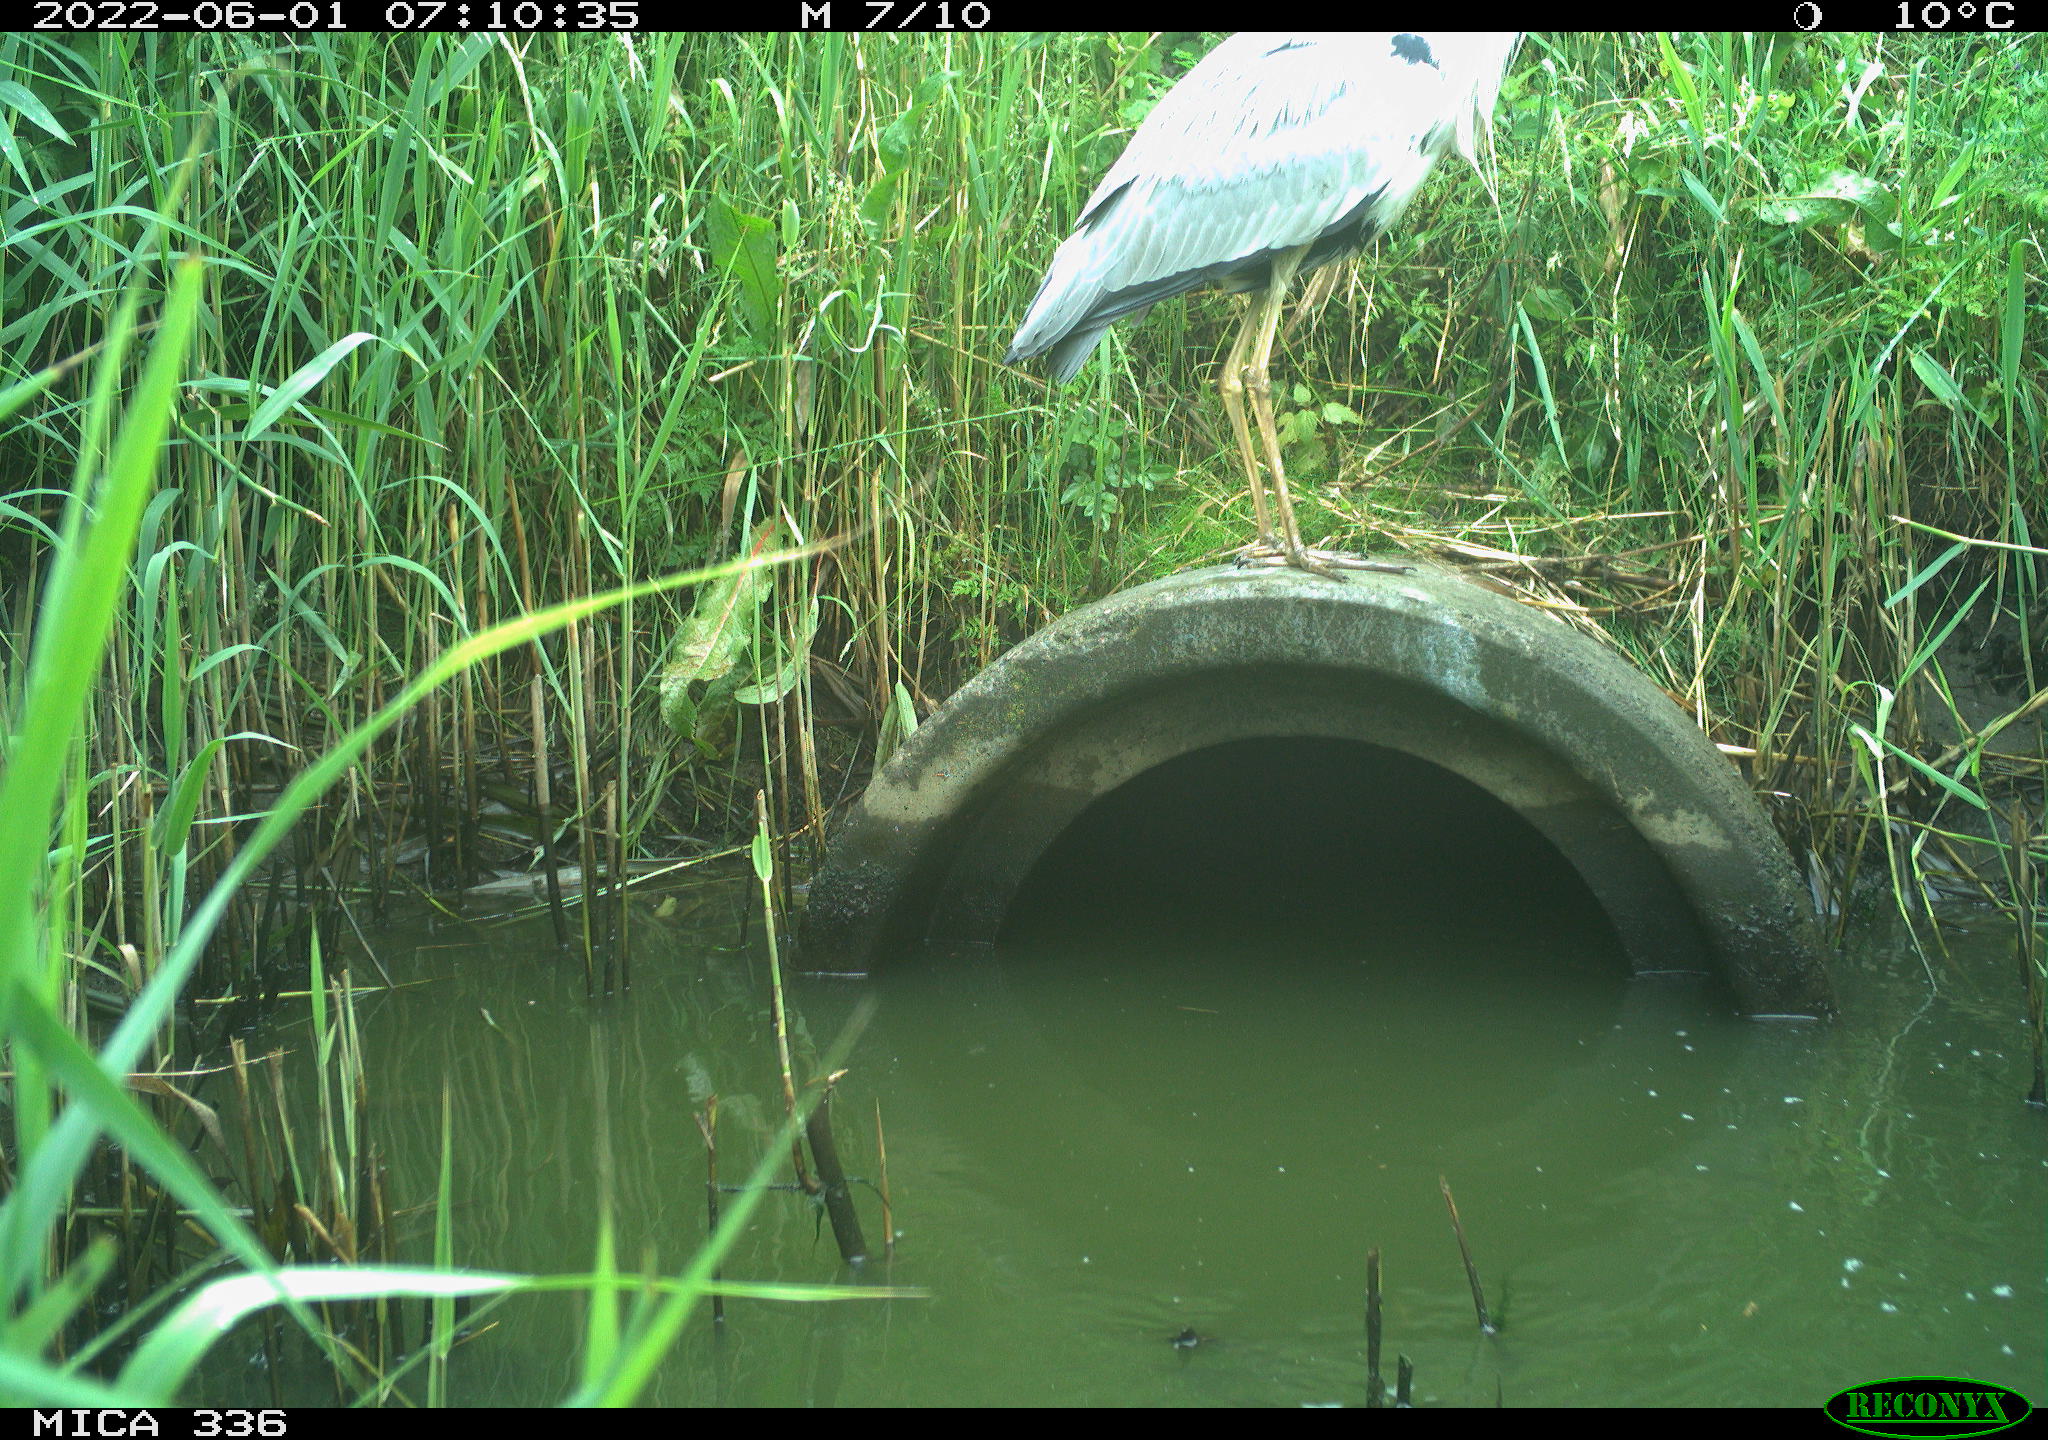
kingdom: Animalia
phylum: Chordata
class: Aves
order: Pelecaniformes
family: Ardeidae
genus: Ardea
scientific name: Ardea
